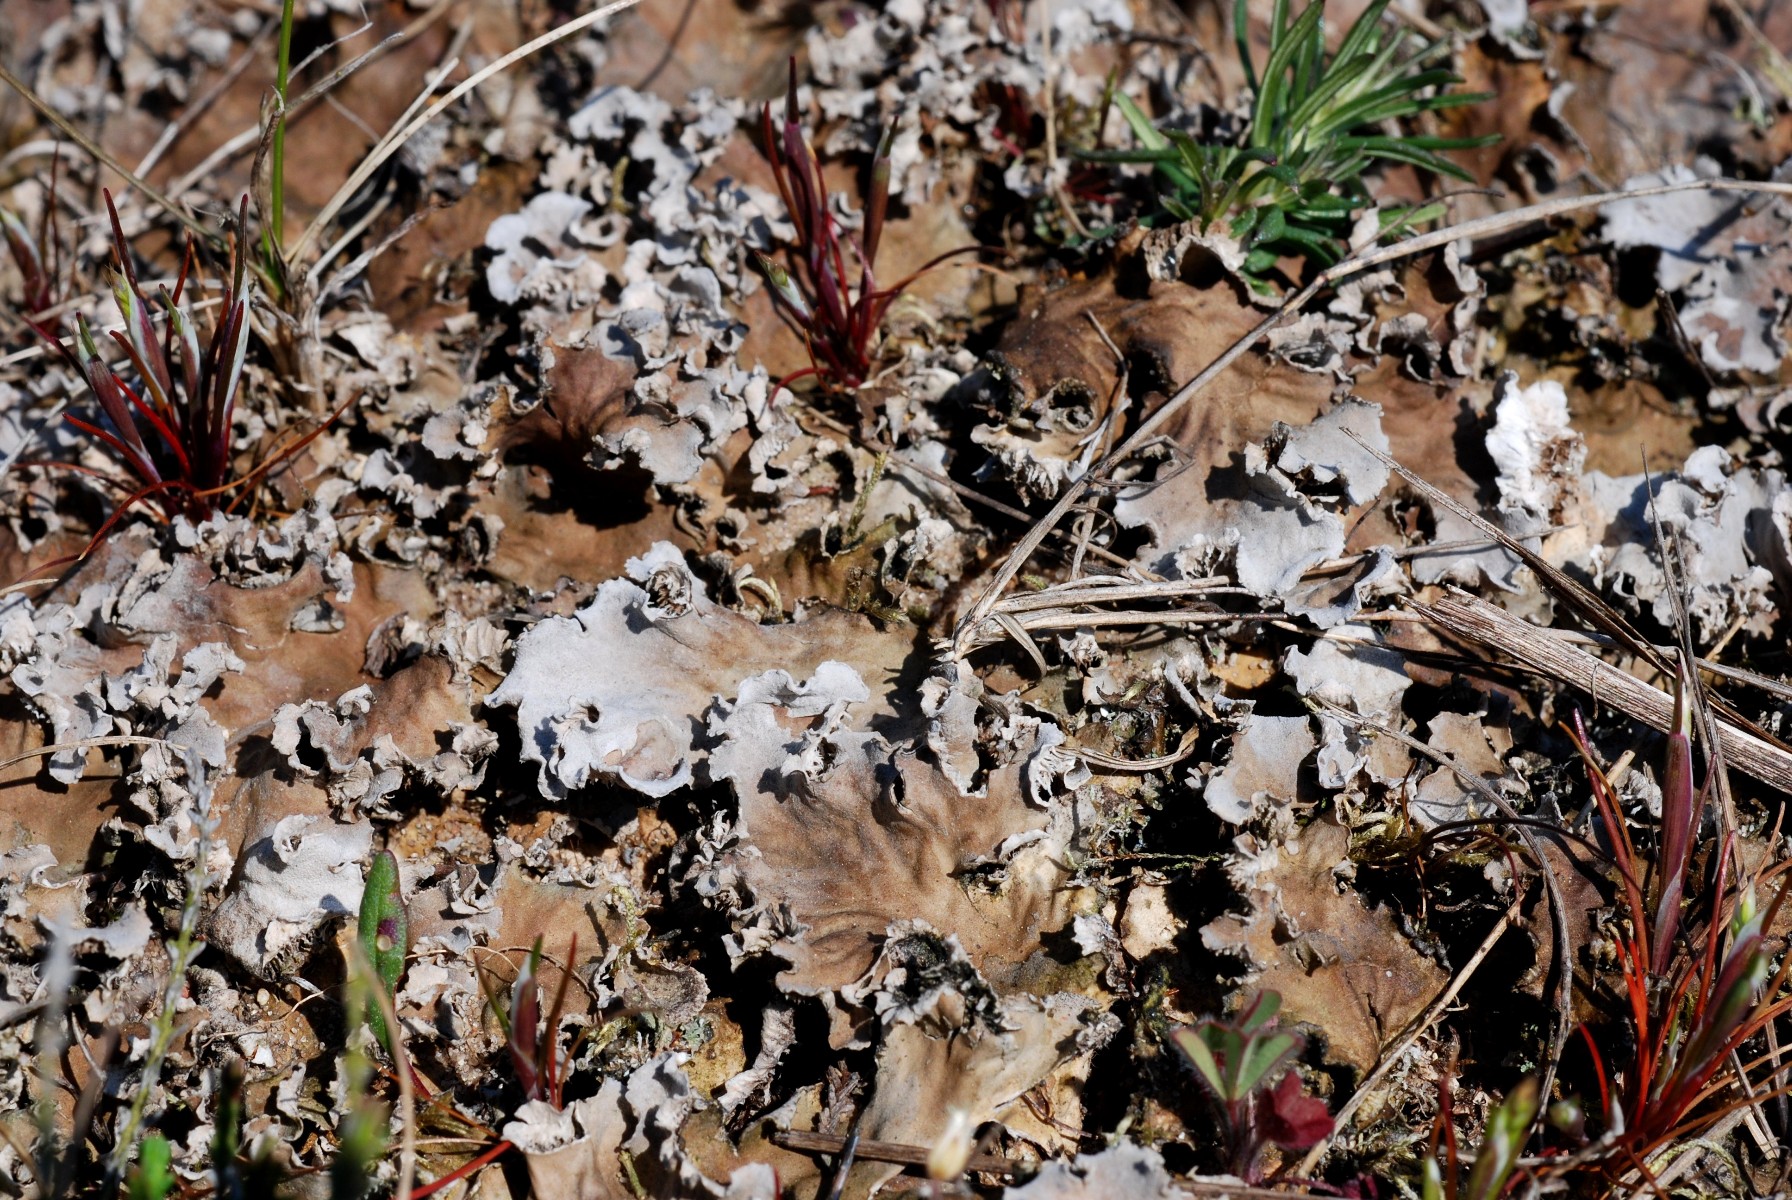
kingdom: Fungi
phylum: Ascomycota
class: Lecanoromycetes
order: Peltigerales
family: Peltigeraceae
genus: Peltigera
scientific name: Peltigera rufescens
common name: brun skjoldlav
